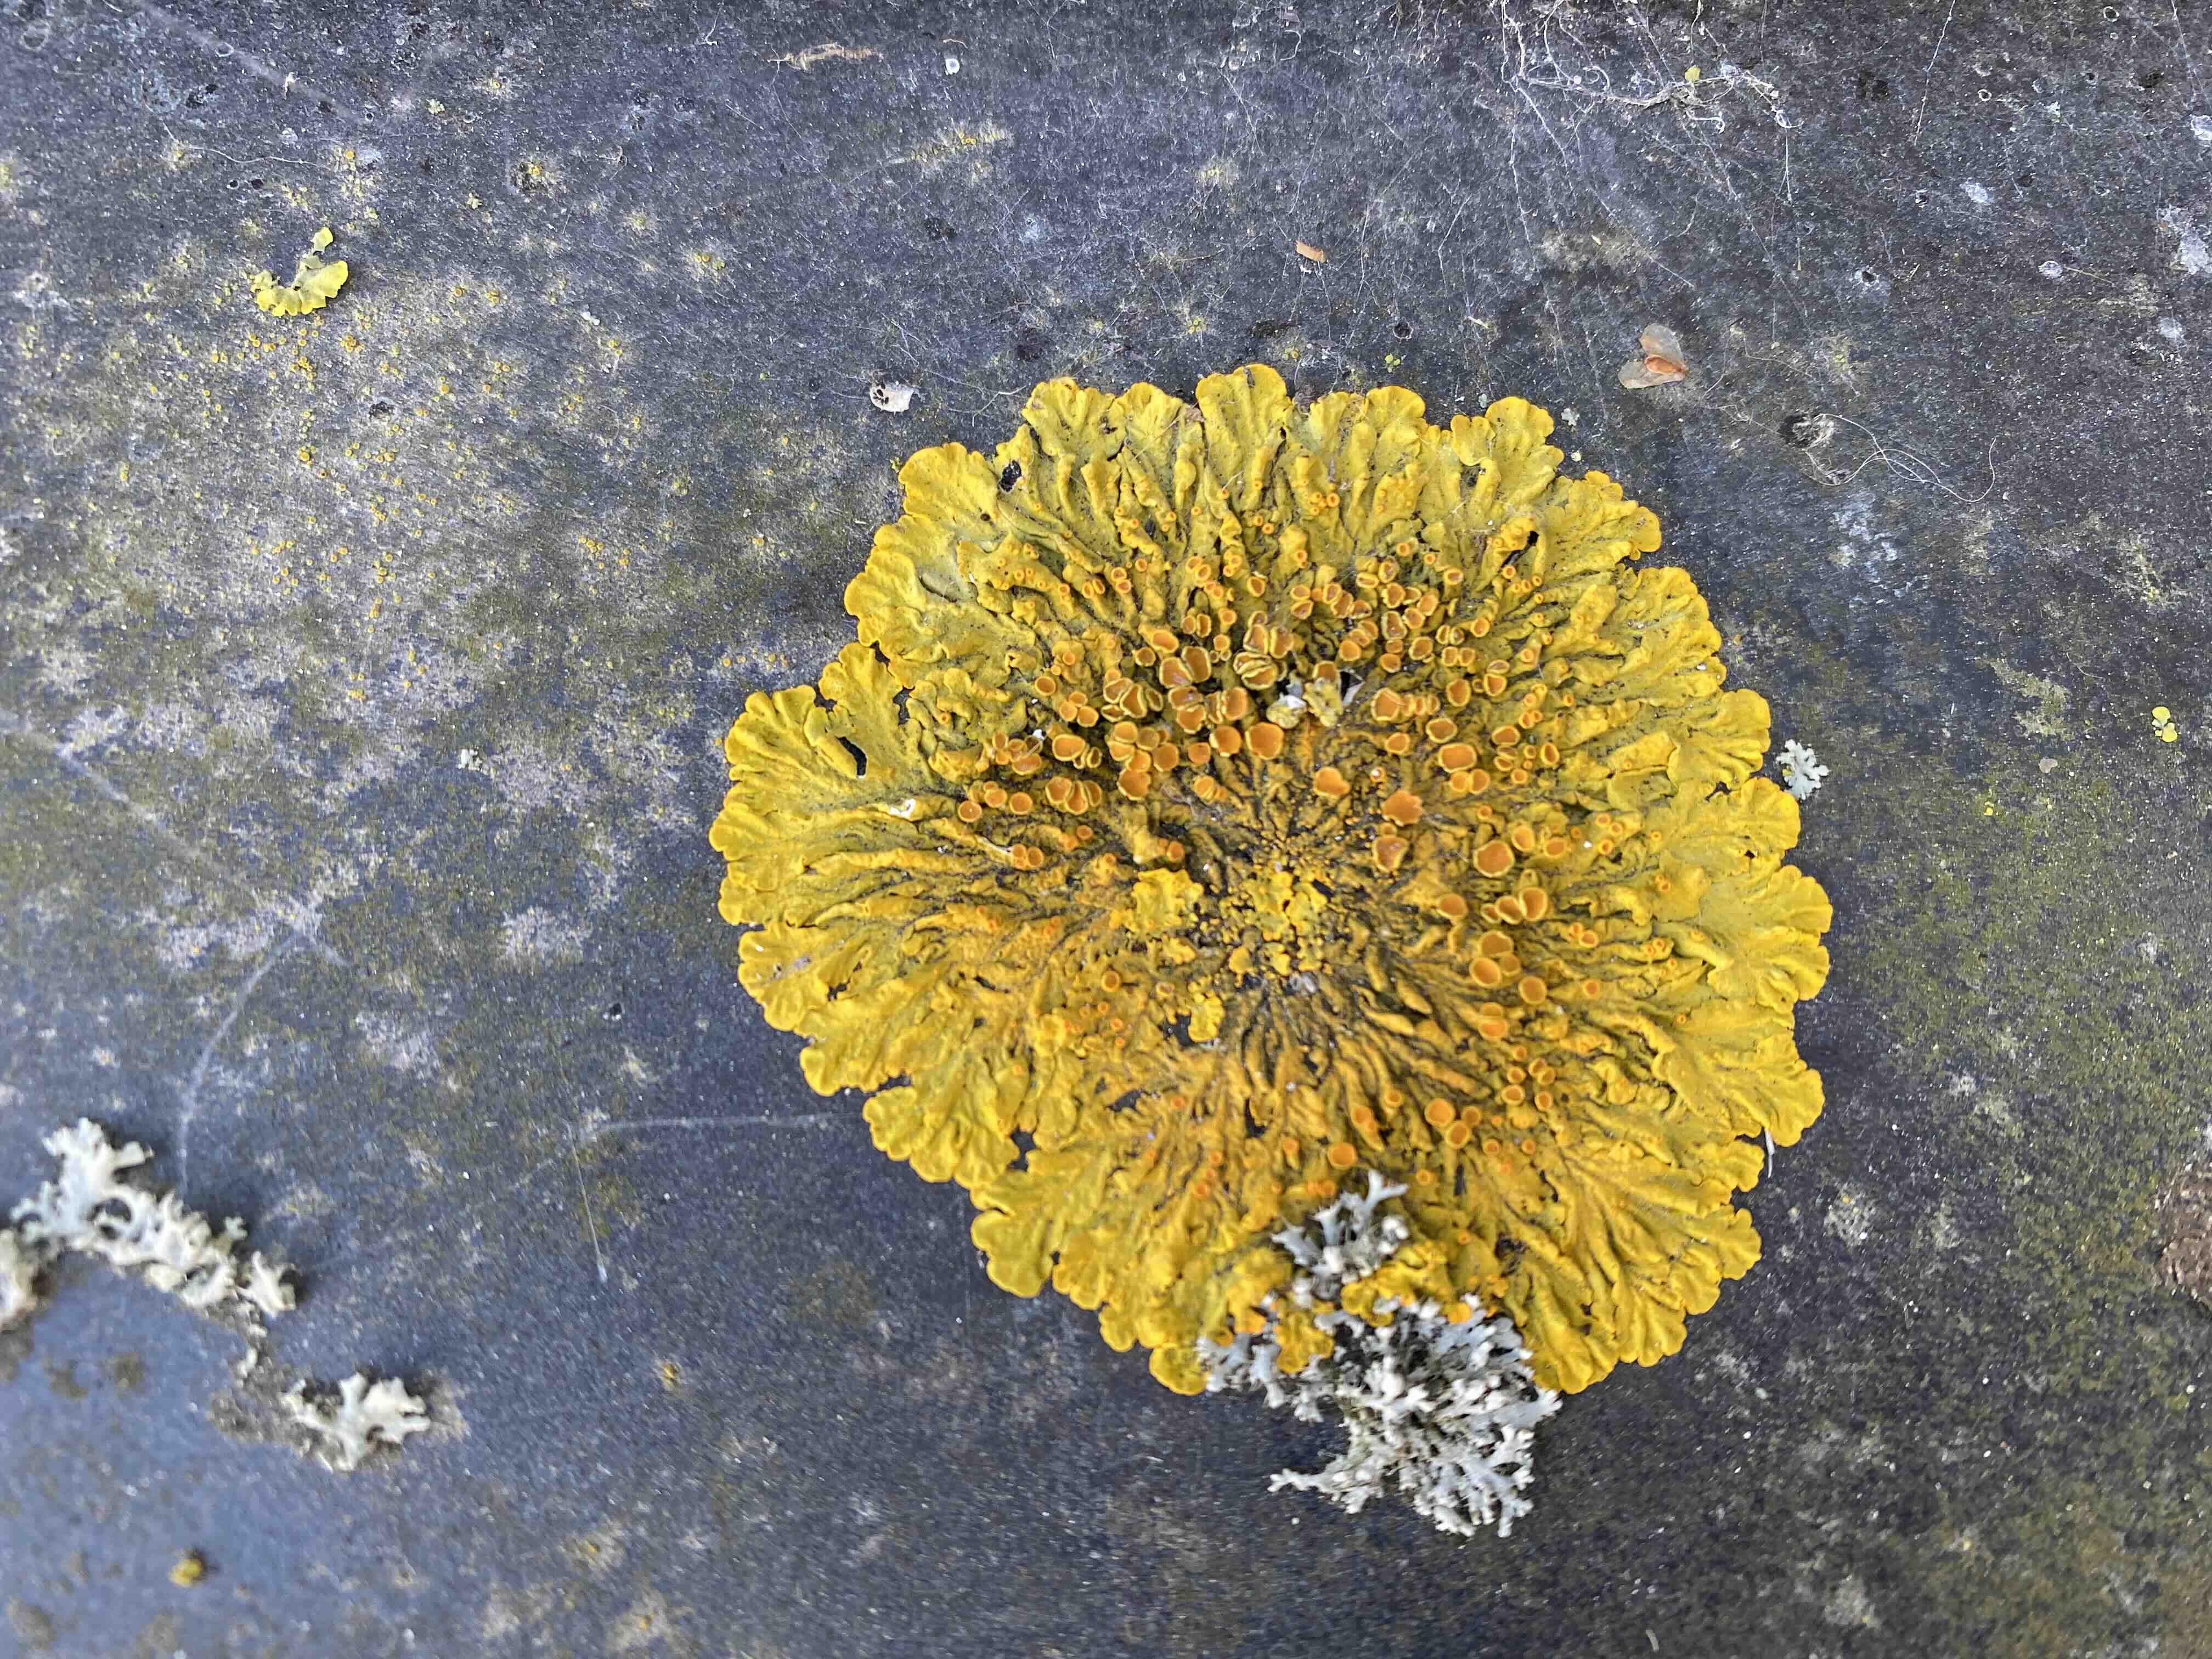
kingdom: Fungi
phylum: Ascomycota
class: Lecanoromycetes
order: Teloschistales
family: Teloschistaceae
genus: Xanthoria
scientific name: Xanthoria parietina
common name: almindelig væggelav
